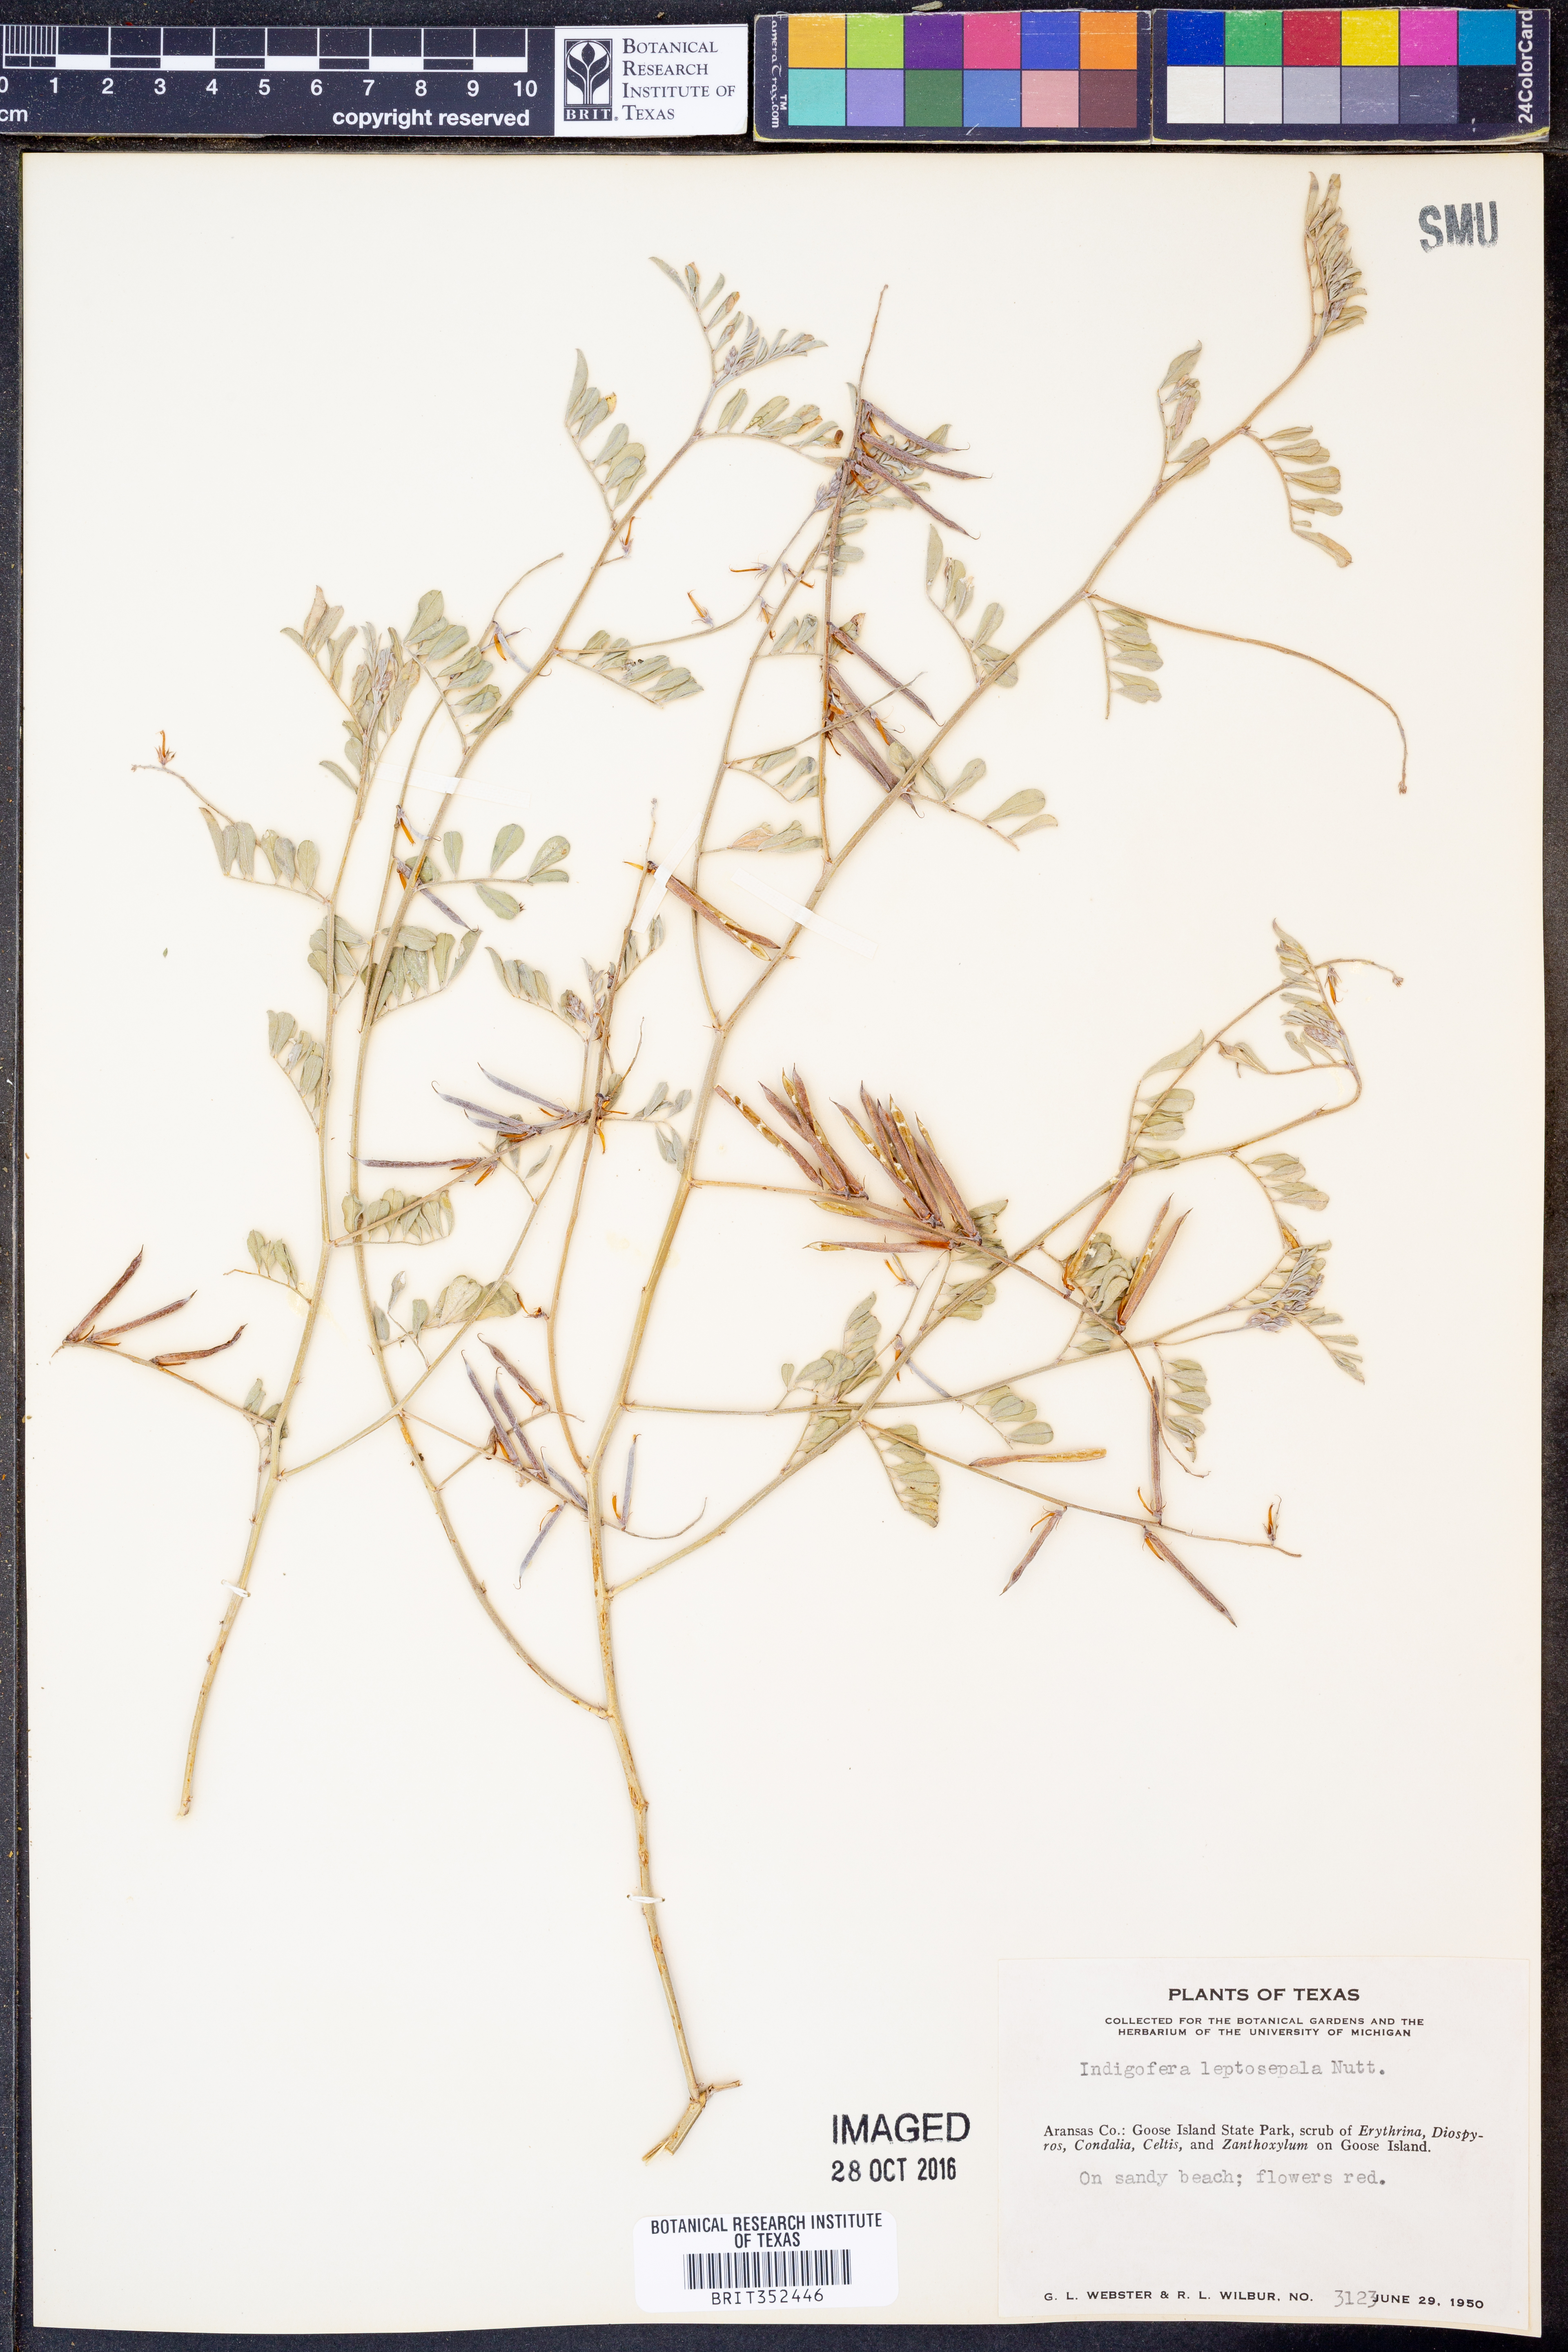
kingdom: Plantae
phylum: Tracheophyta
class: Magnoliopsida
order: Fabales
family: Fabaceae
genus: Indigofera
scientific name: Indigofera argutidens
